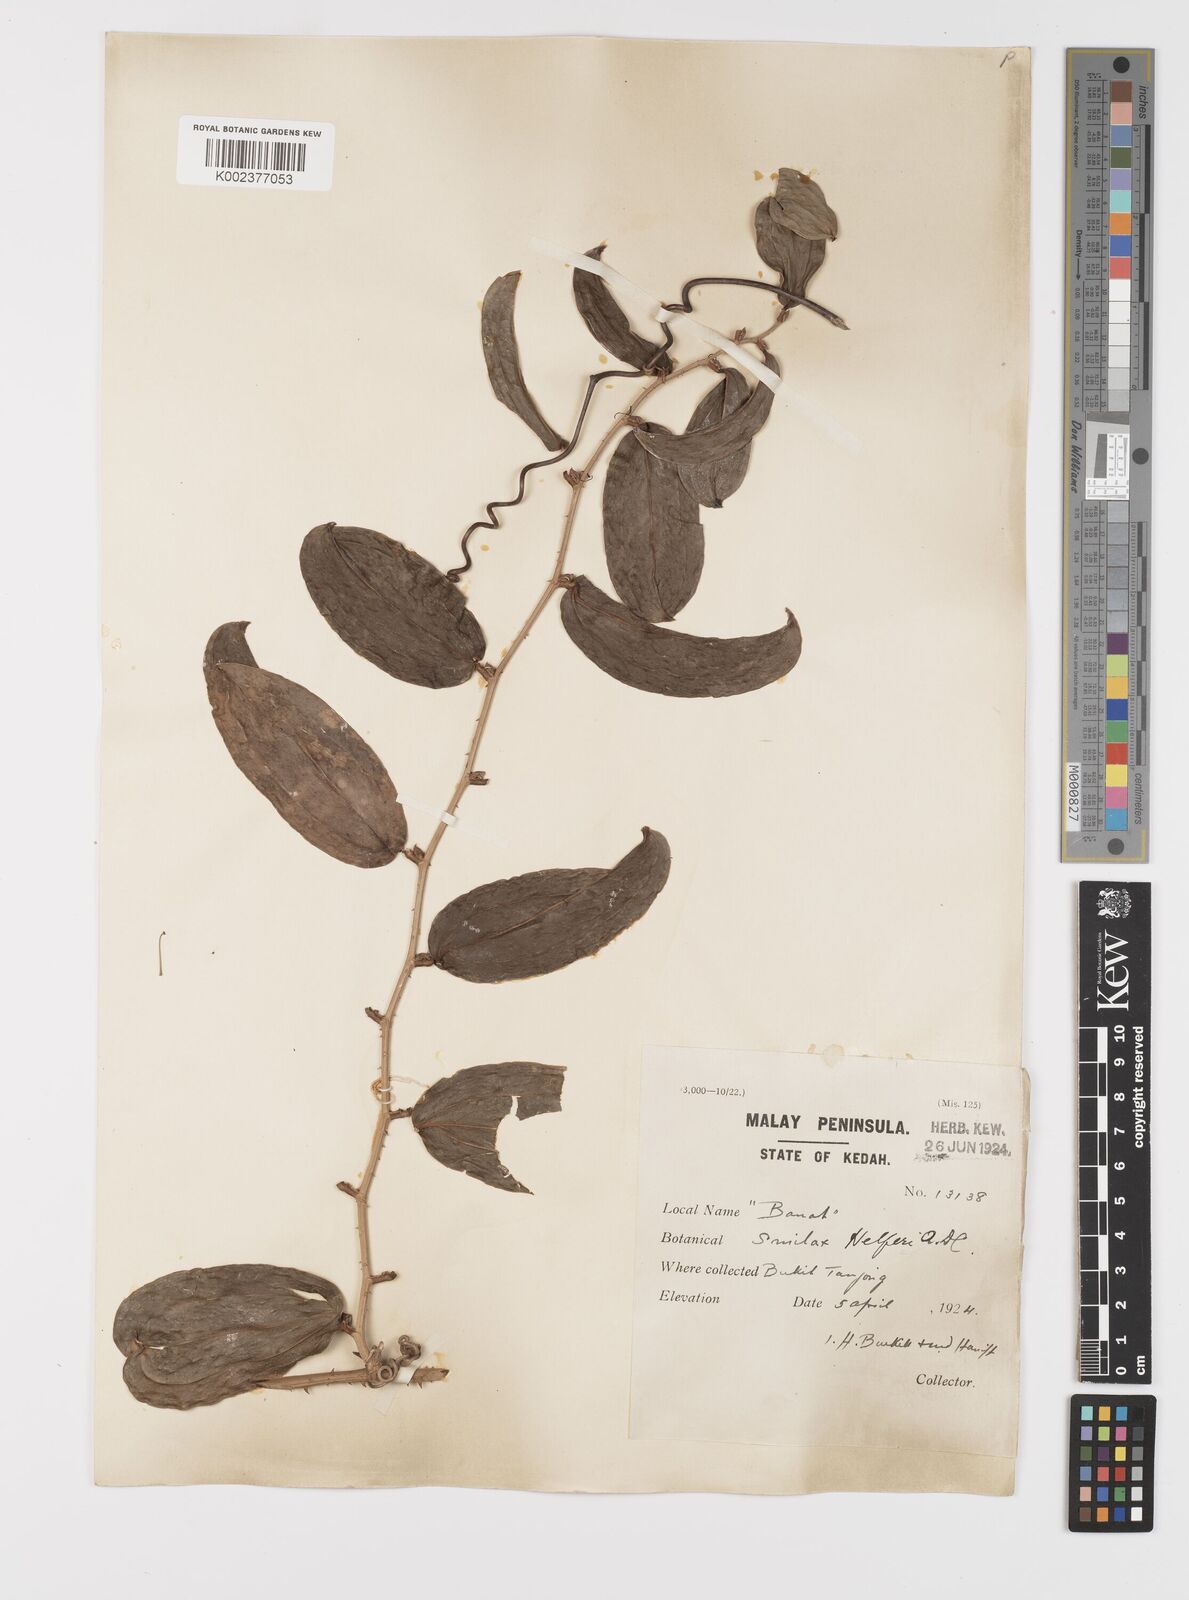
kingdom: Plantae
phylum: Tracheophyta
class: Liliopsida
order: Liliales
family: Smilacaceae
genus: Smilax
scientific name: Smilax luzonensis
